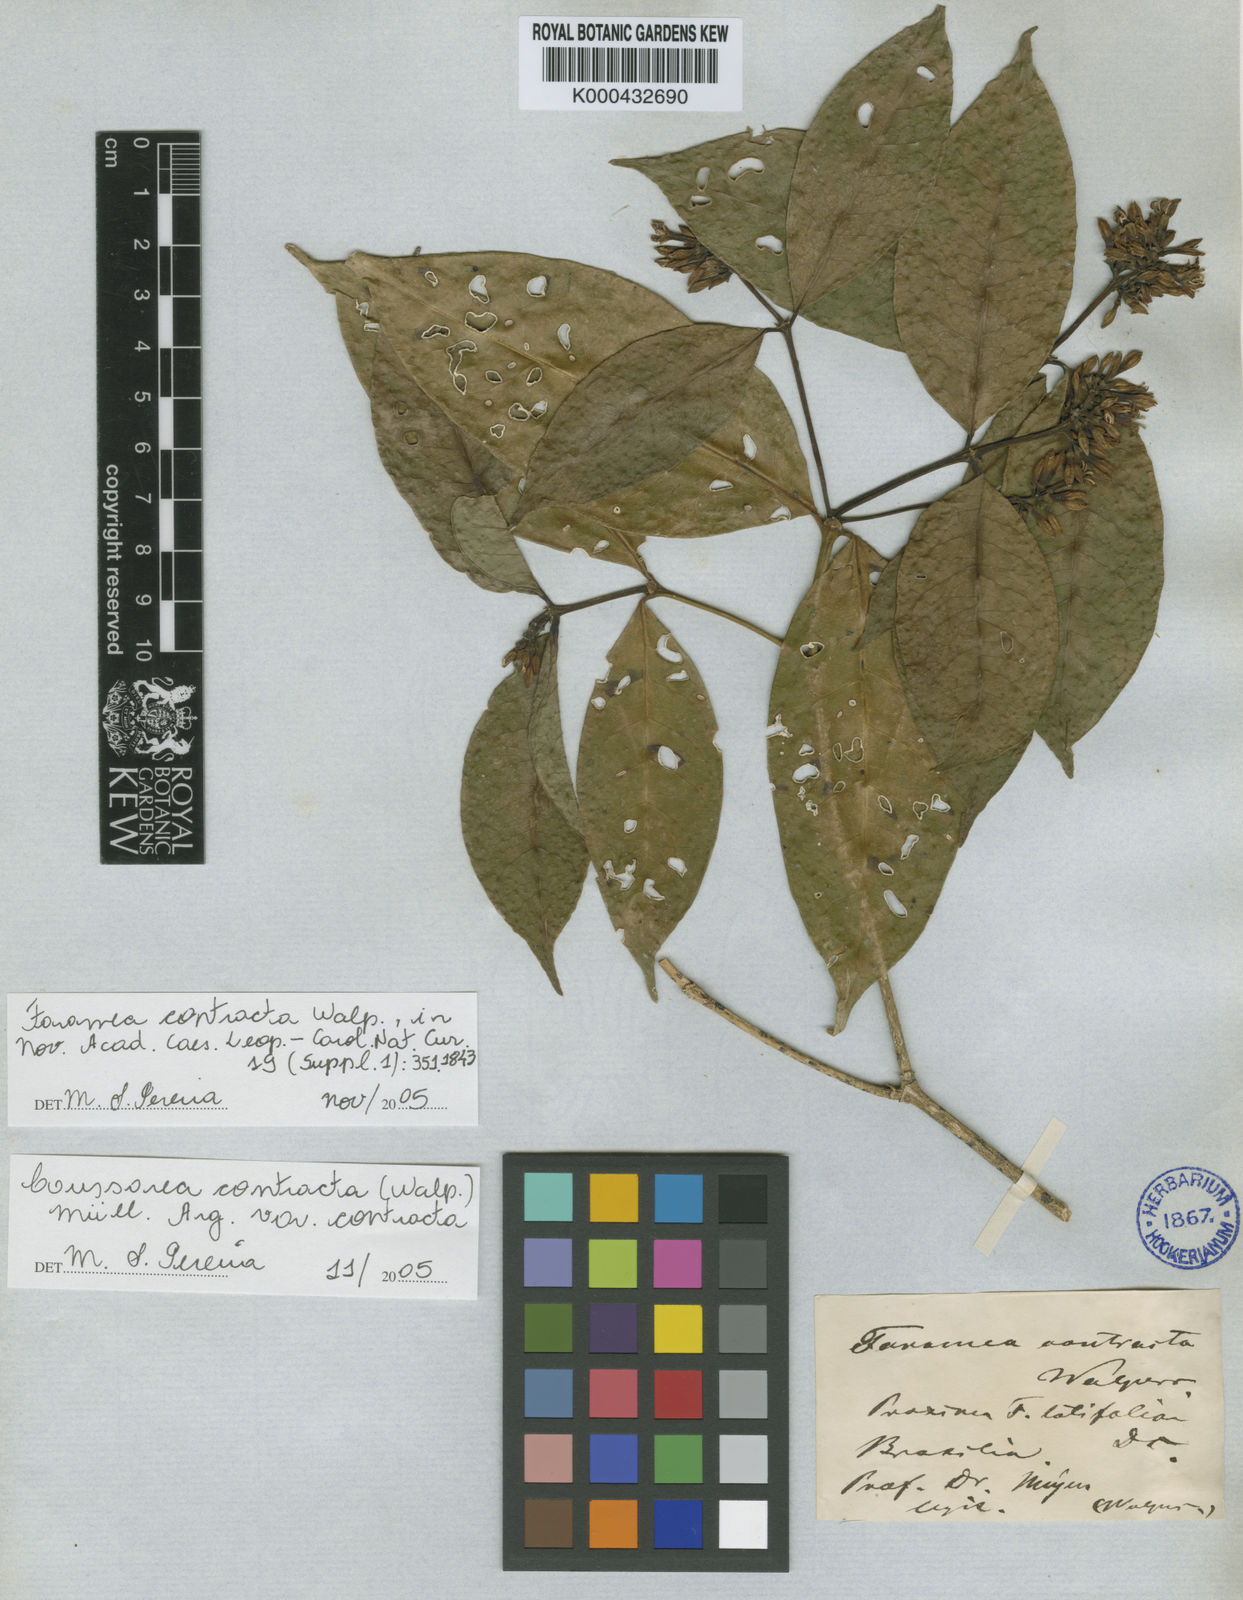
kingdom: Plantae
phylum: Tracheophyta
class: Magnoliopsida
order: Gentianales
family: Rubiaceae
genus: Coussarea
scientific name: Coussarea
